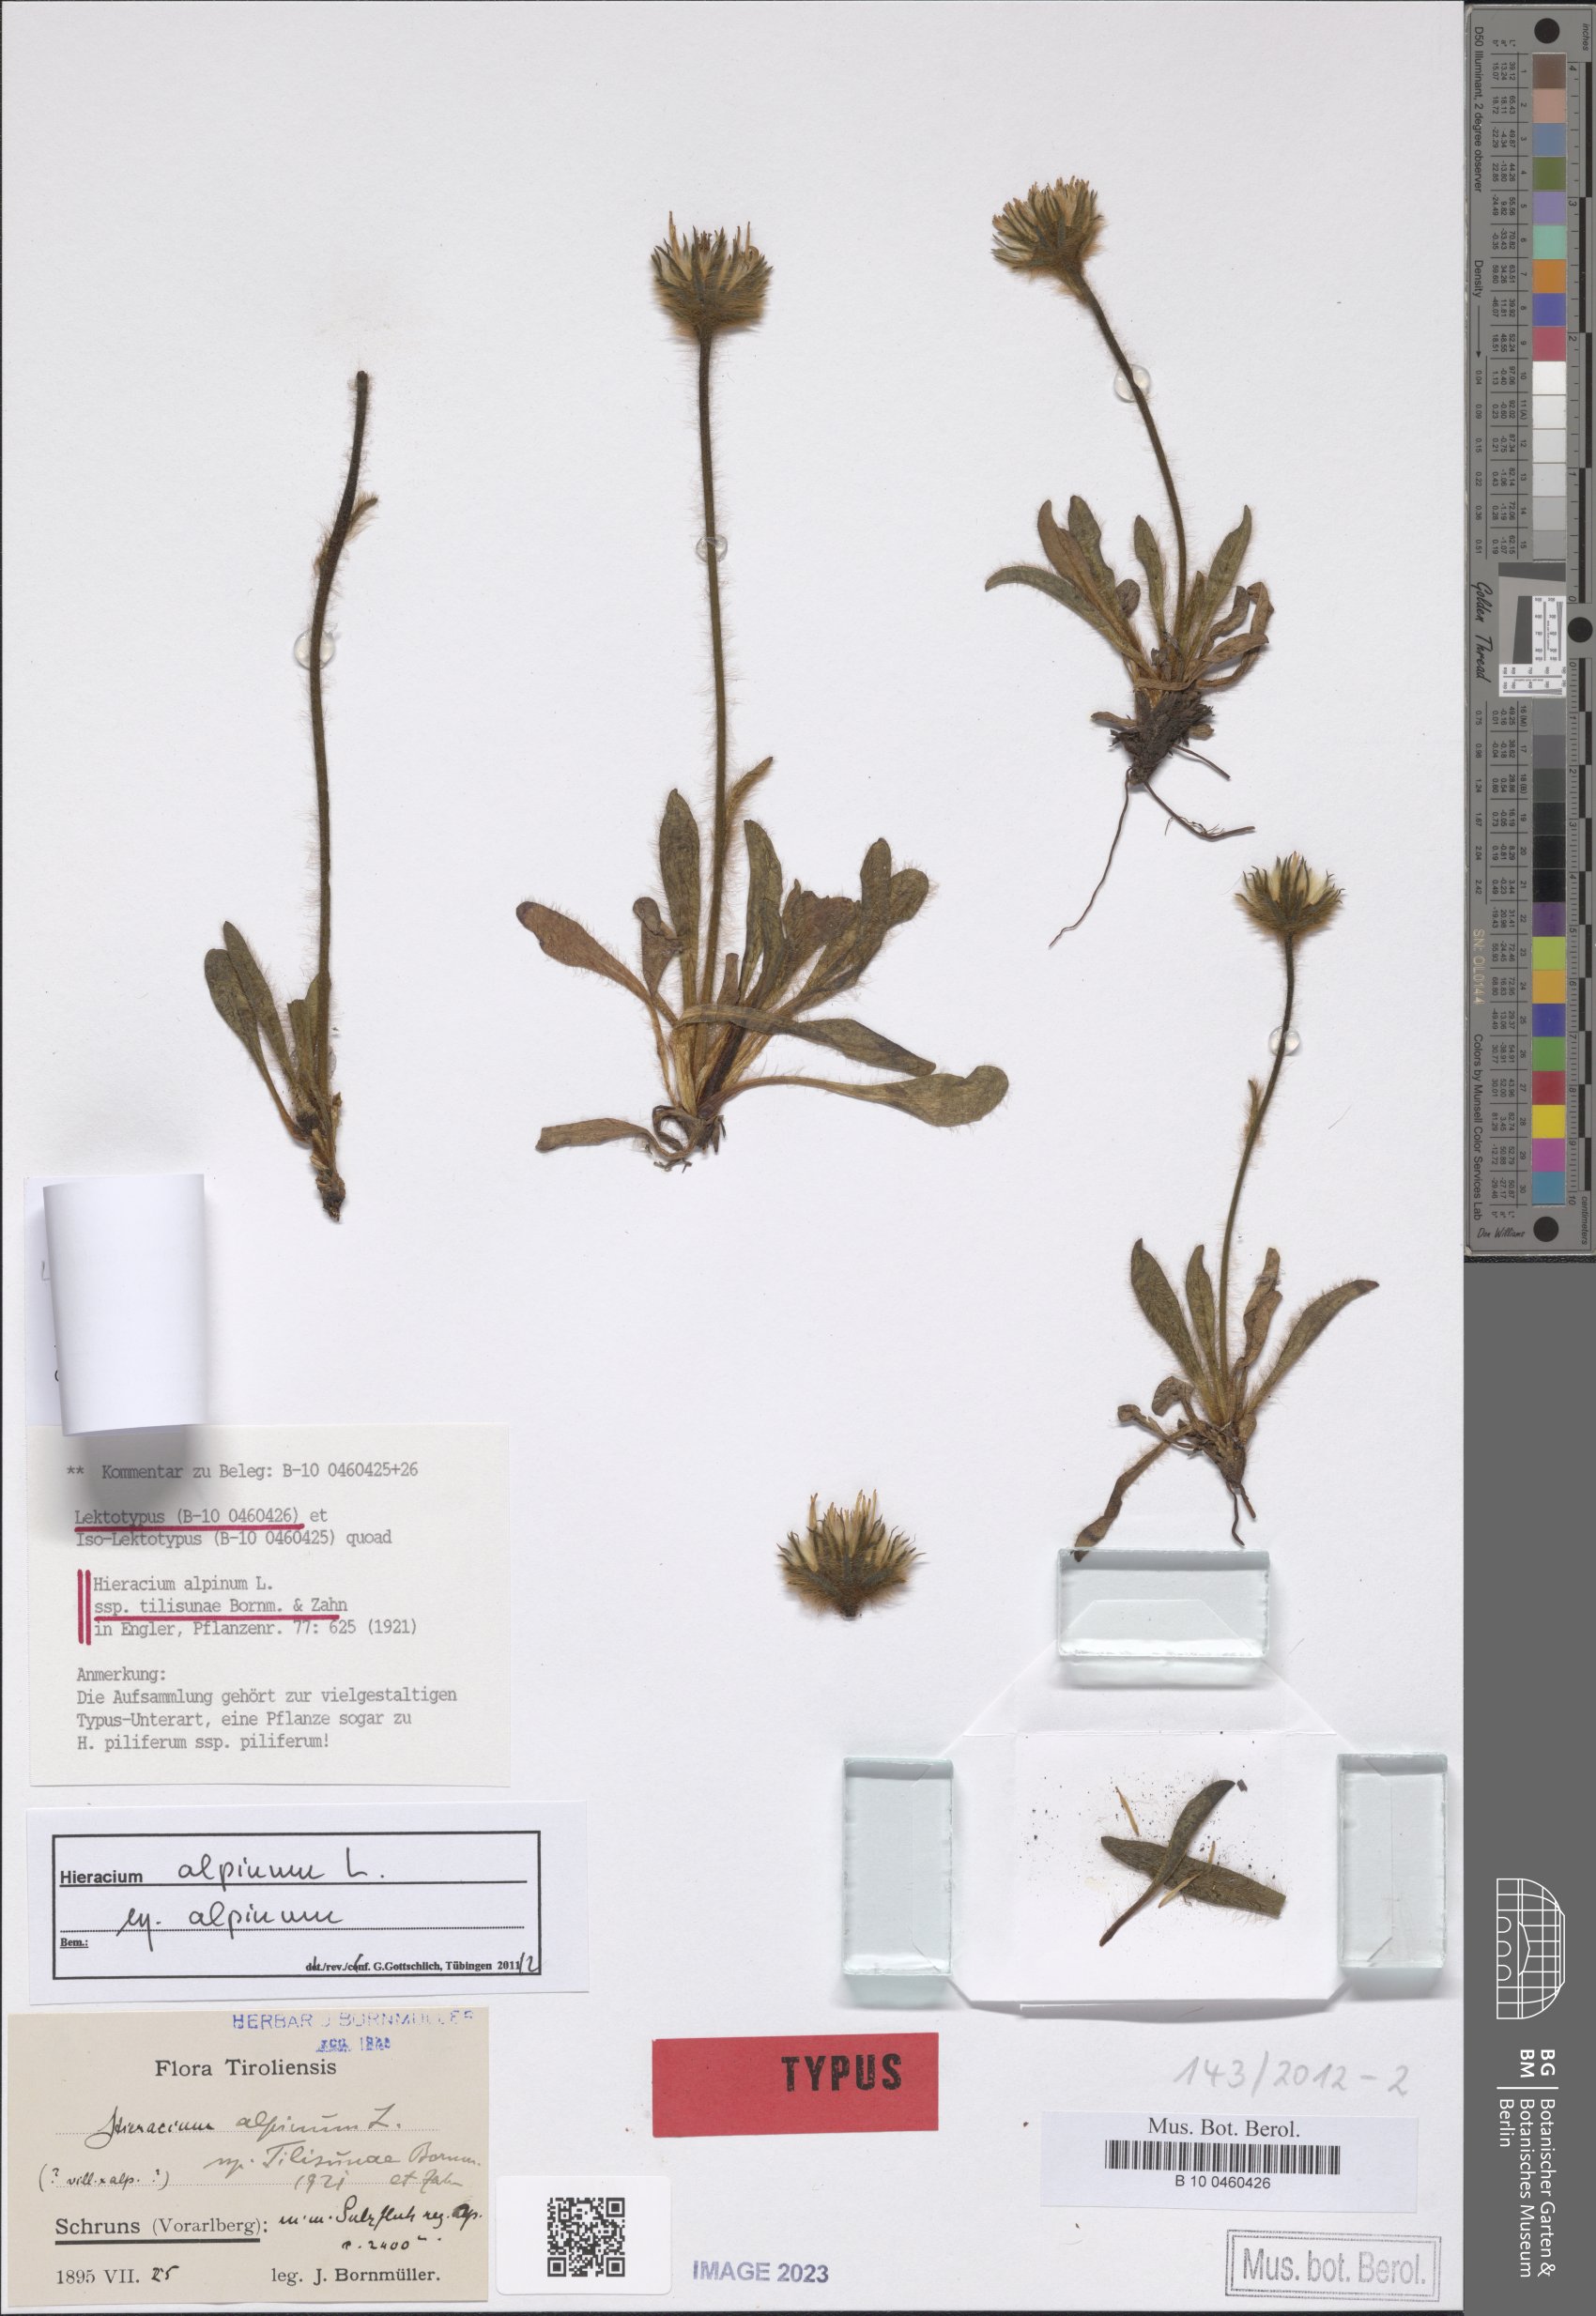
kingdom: Plantae
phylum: Tracheophyta
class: Magnoliopsida
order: Asterales
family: Asteraceae
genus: Hieracium
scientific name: Hieracium alpinum
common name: Alpine hawkweed
